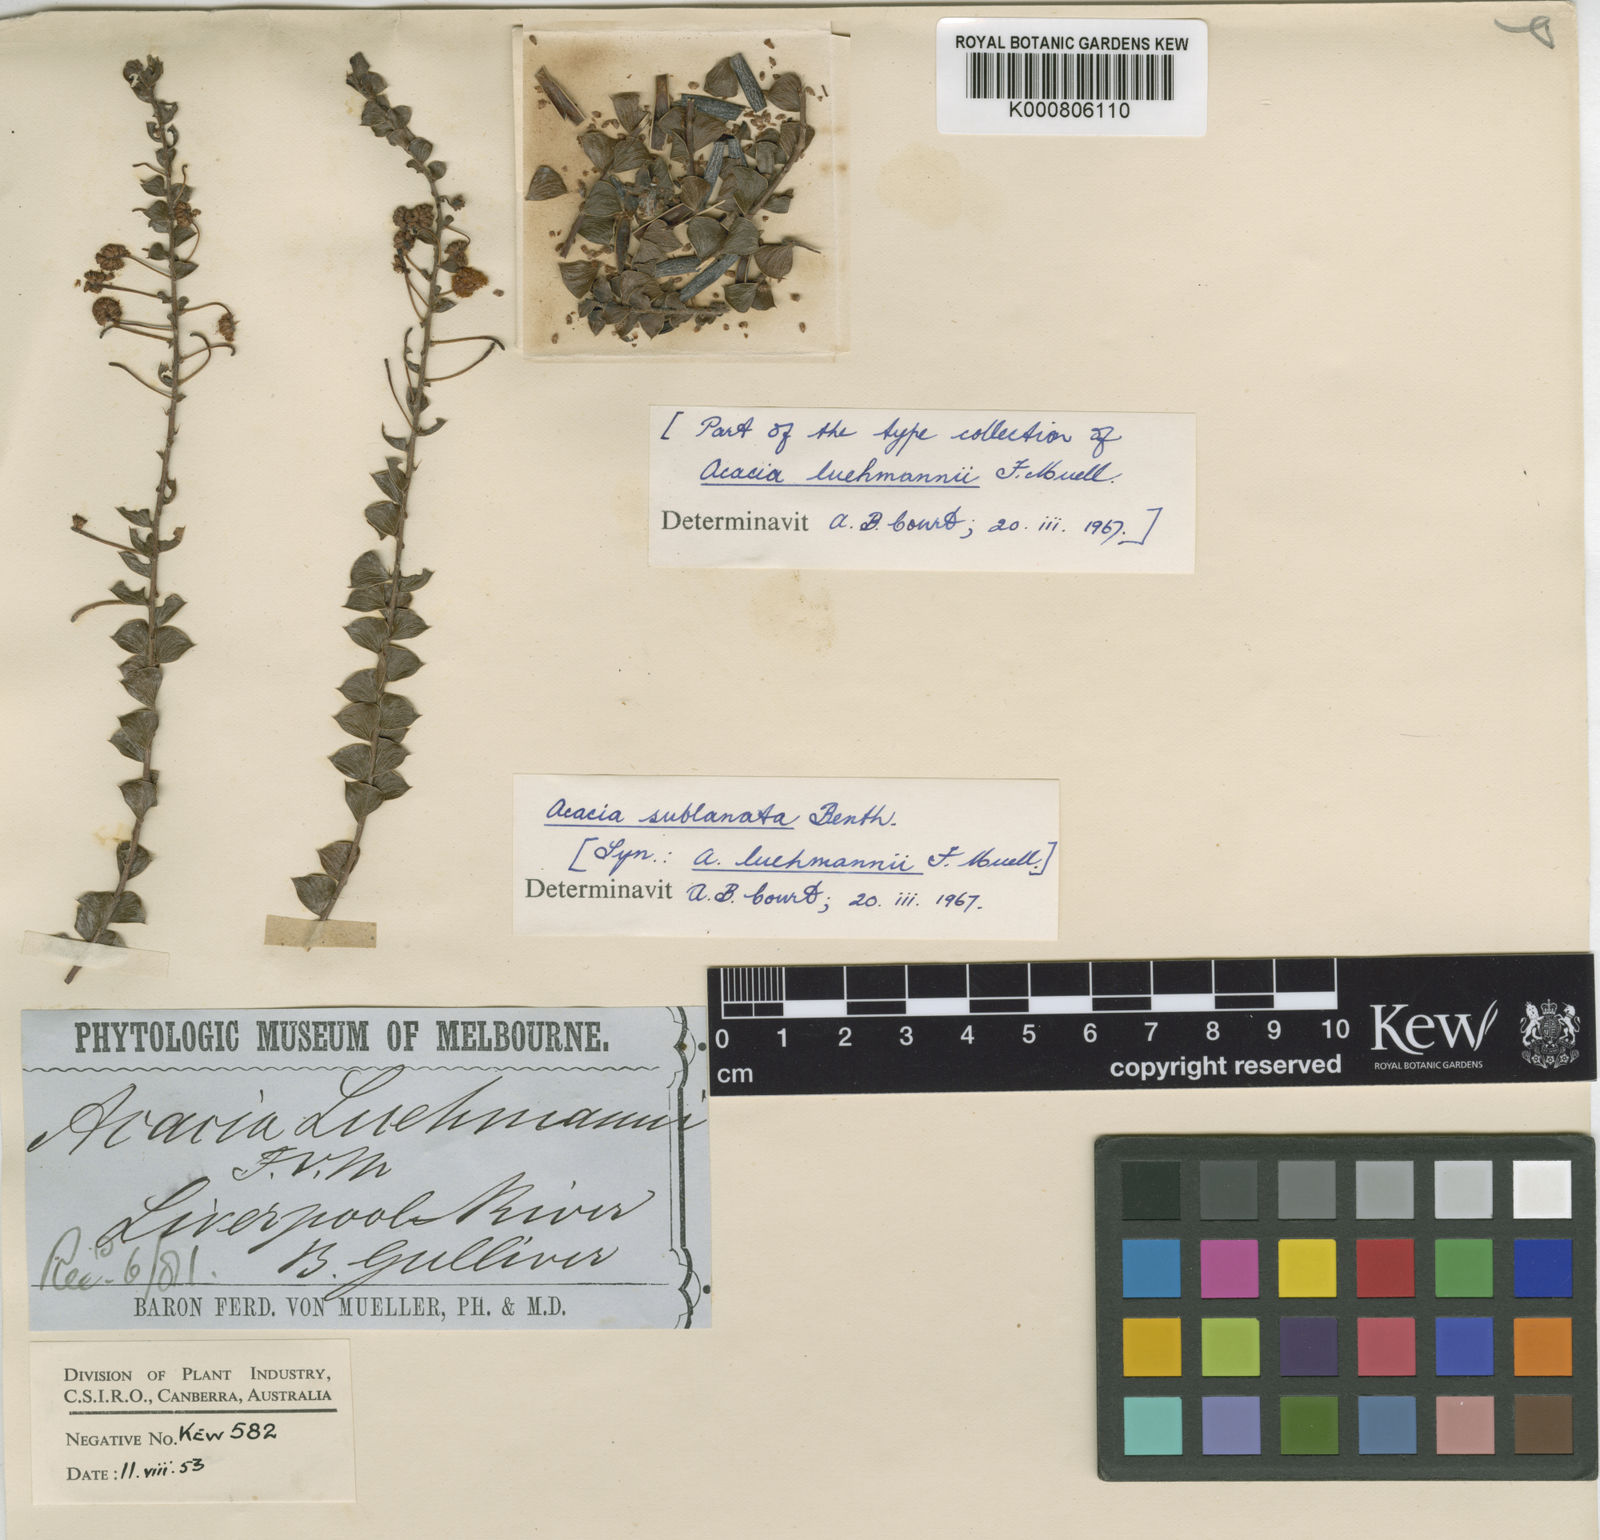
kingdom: Plantae
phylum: Tracheophyta
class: Magnoliopsida
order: Fabales
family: Fabaceae
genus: Acacia
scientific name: Acacia sublanata
